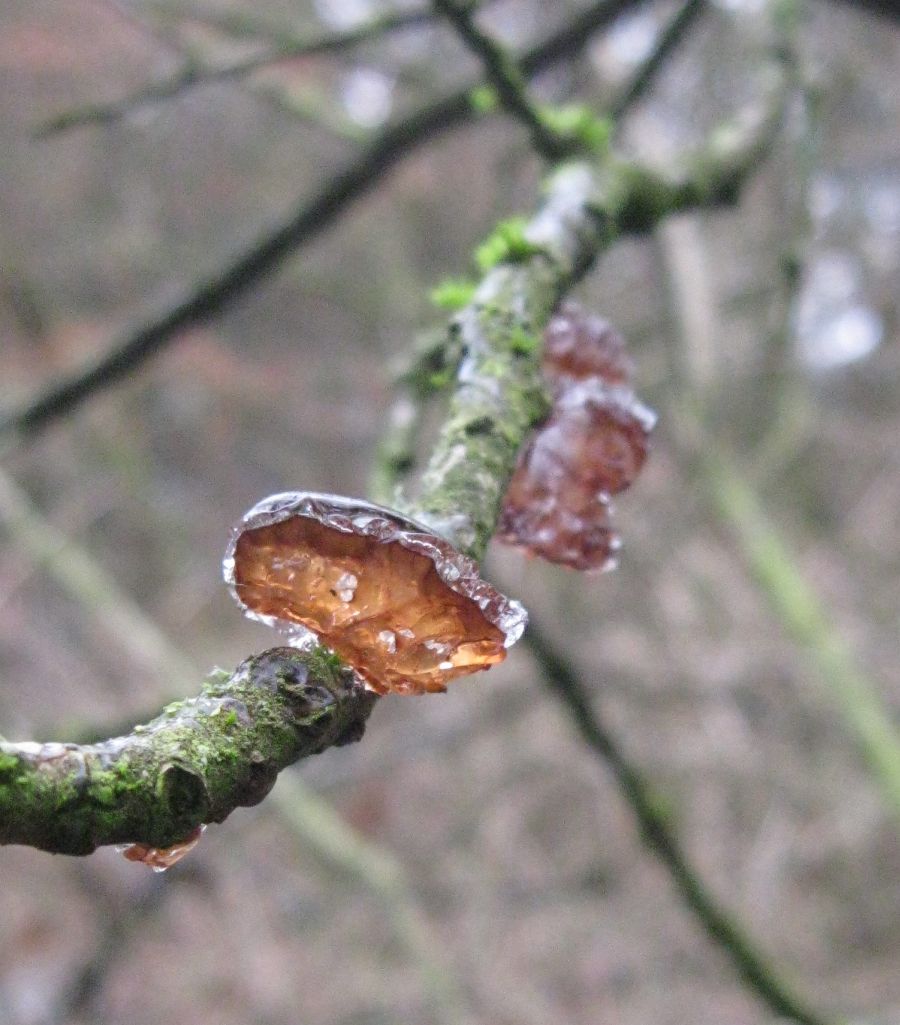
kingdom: Fungi
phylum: Basidiomycota
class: Agaricomycetes
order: Auriculariales
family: Auriculariaceae
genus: Exidia
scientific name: Exidia recisa
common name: pile-bævretop
